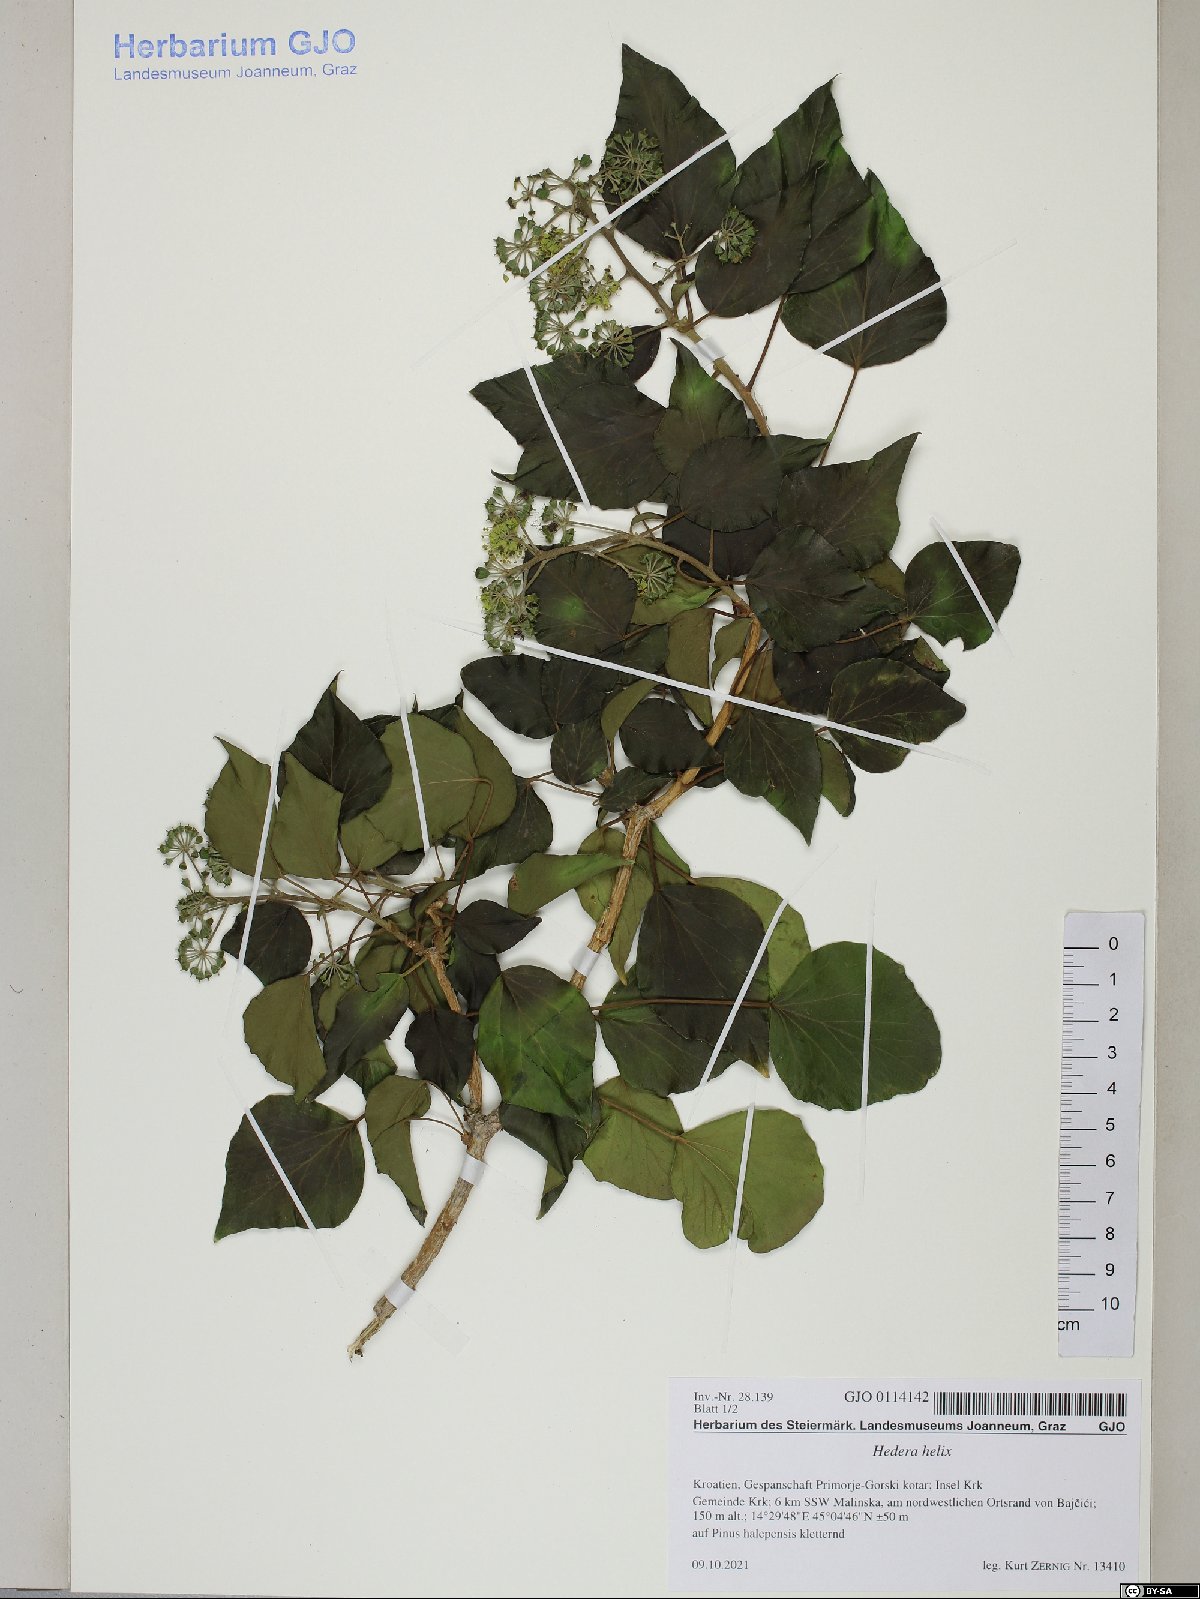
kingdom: Plantae
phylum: Tracheophyta
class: Magnoliopsida
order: Apiales
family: Araliaceae
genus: Hedera
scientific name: Hedera helix
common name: Ivy
